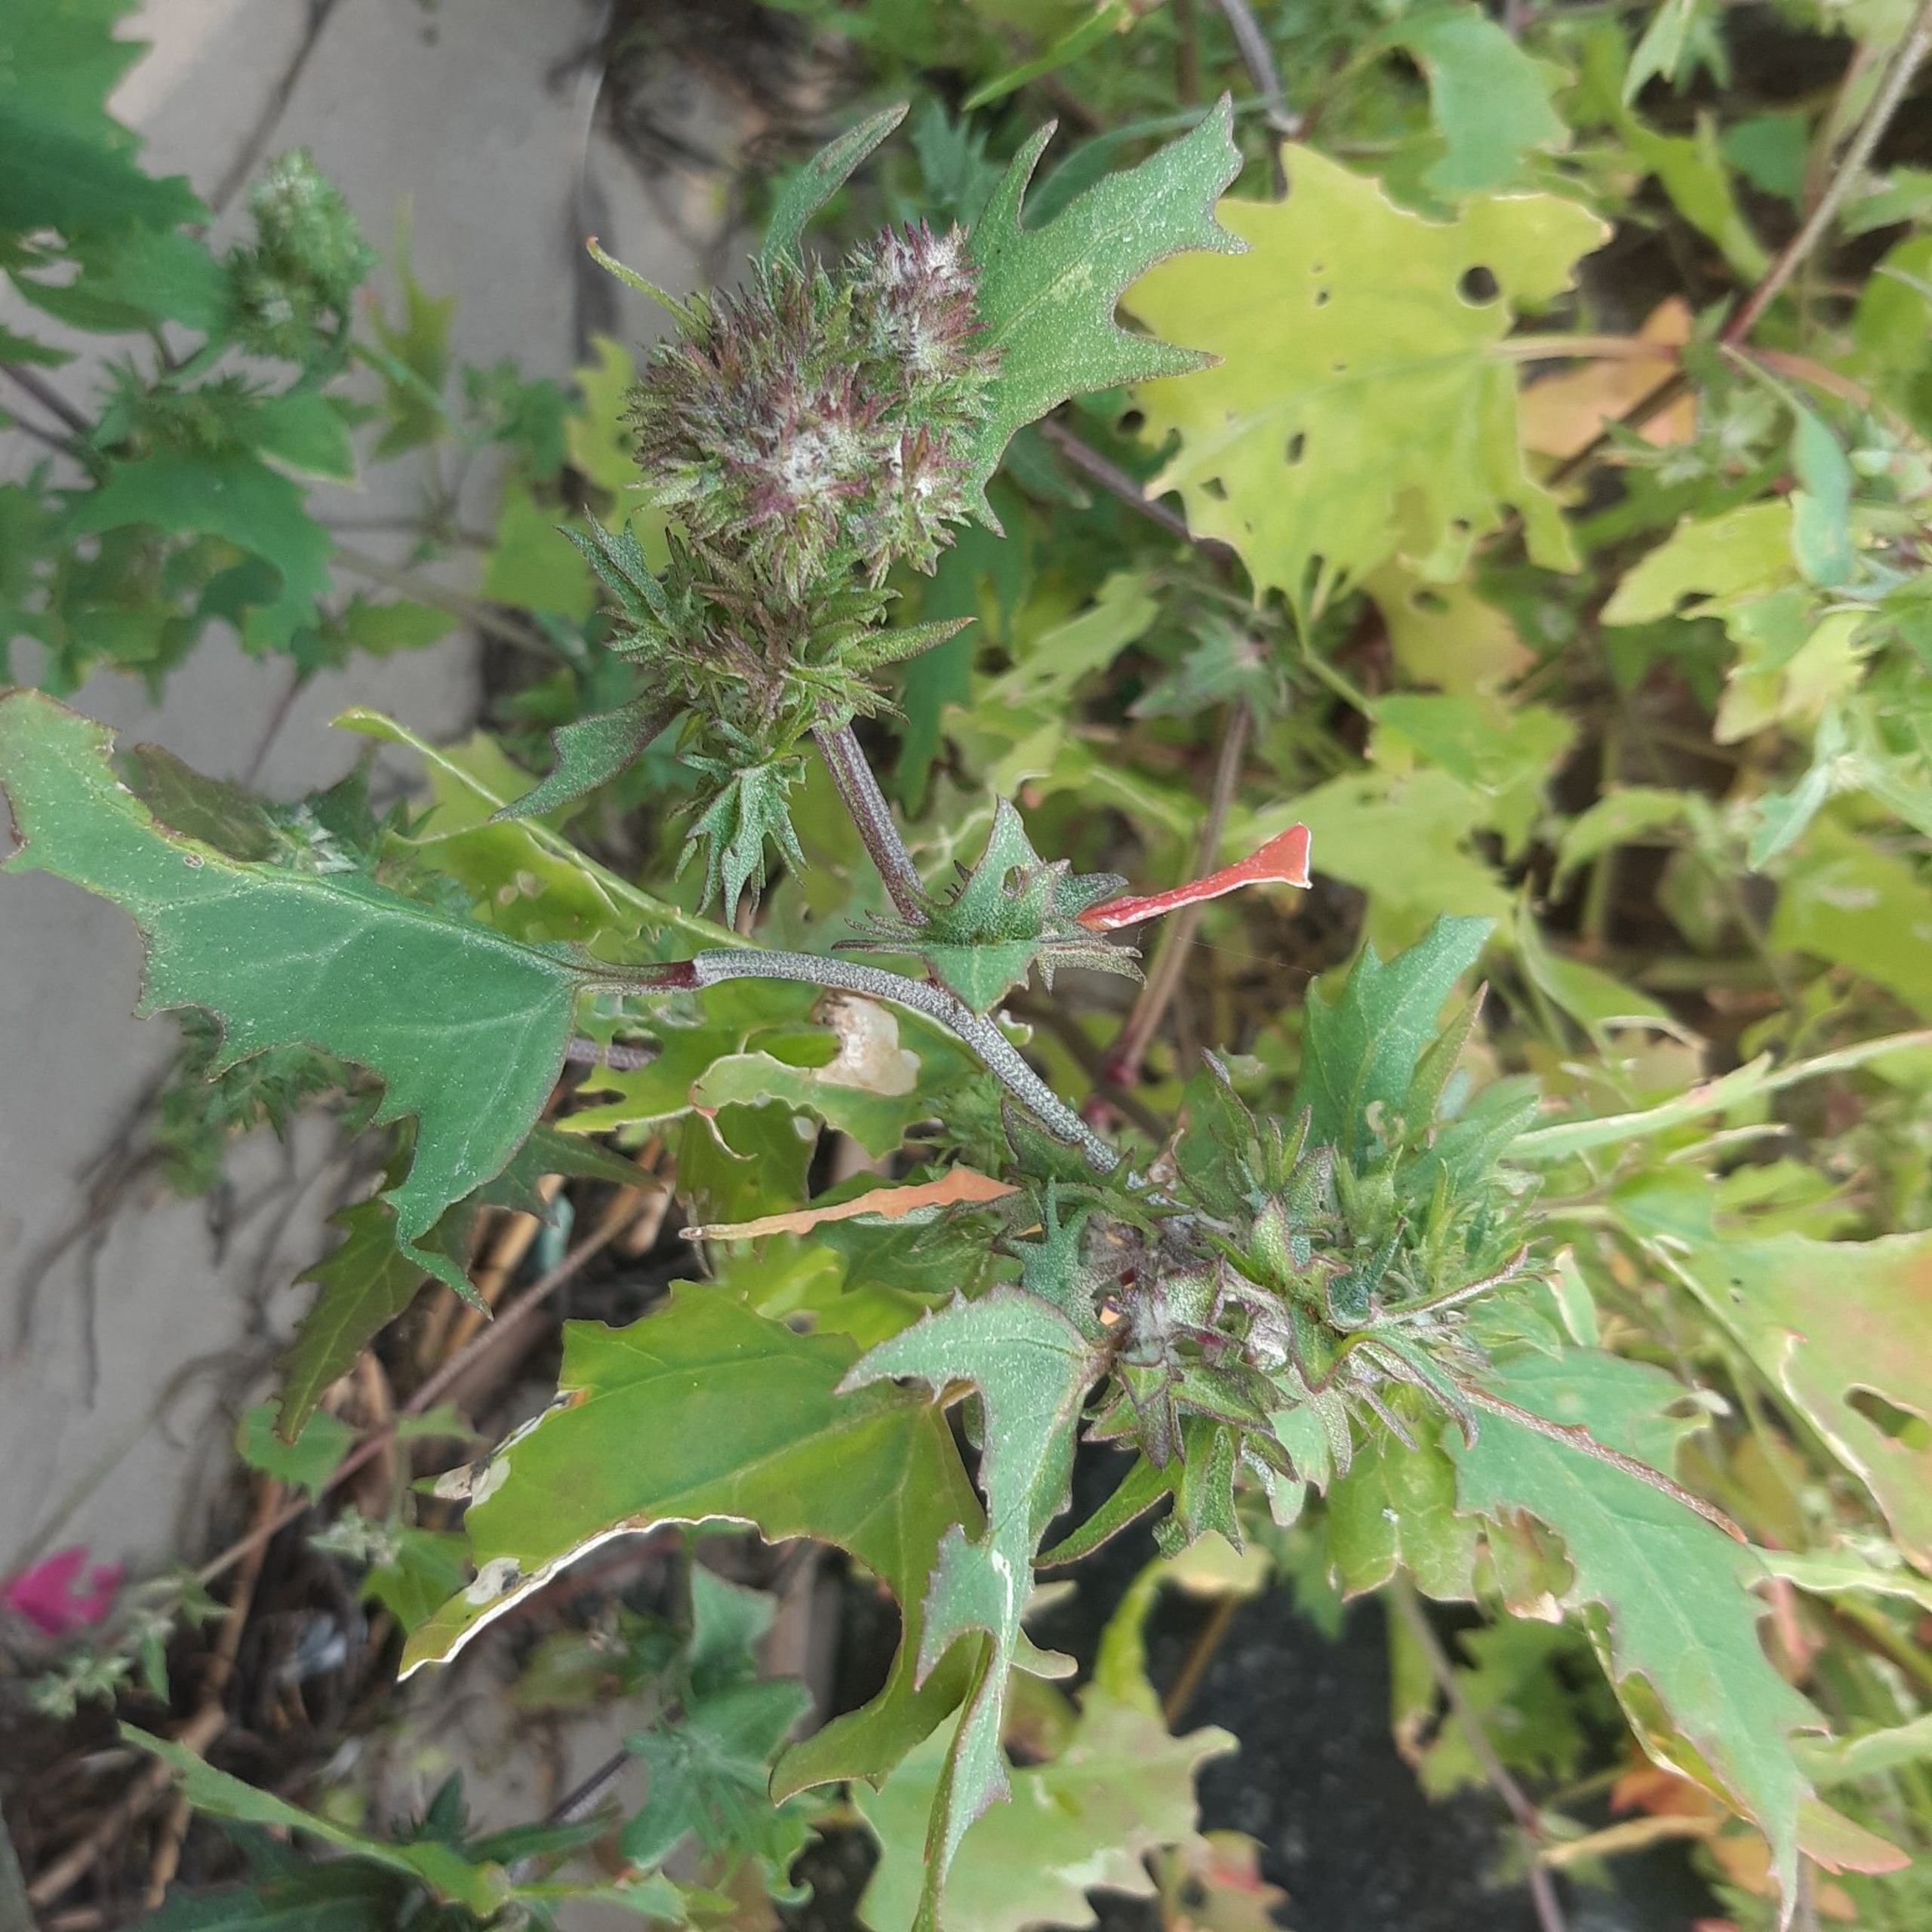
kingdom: Plantae
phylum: Tracheophyta
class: Magnoliopsida
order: Caryophyllales
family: Amaranthaceae
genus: Atriplex
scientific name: Atriplex calotheca
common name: Skønbægret mælde
